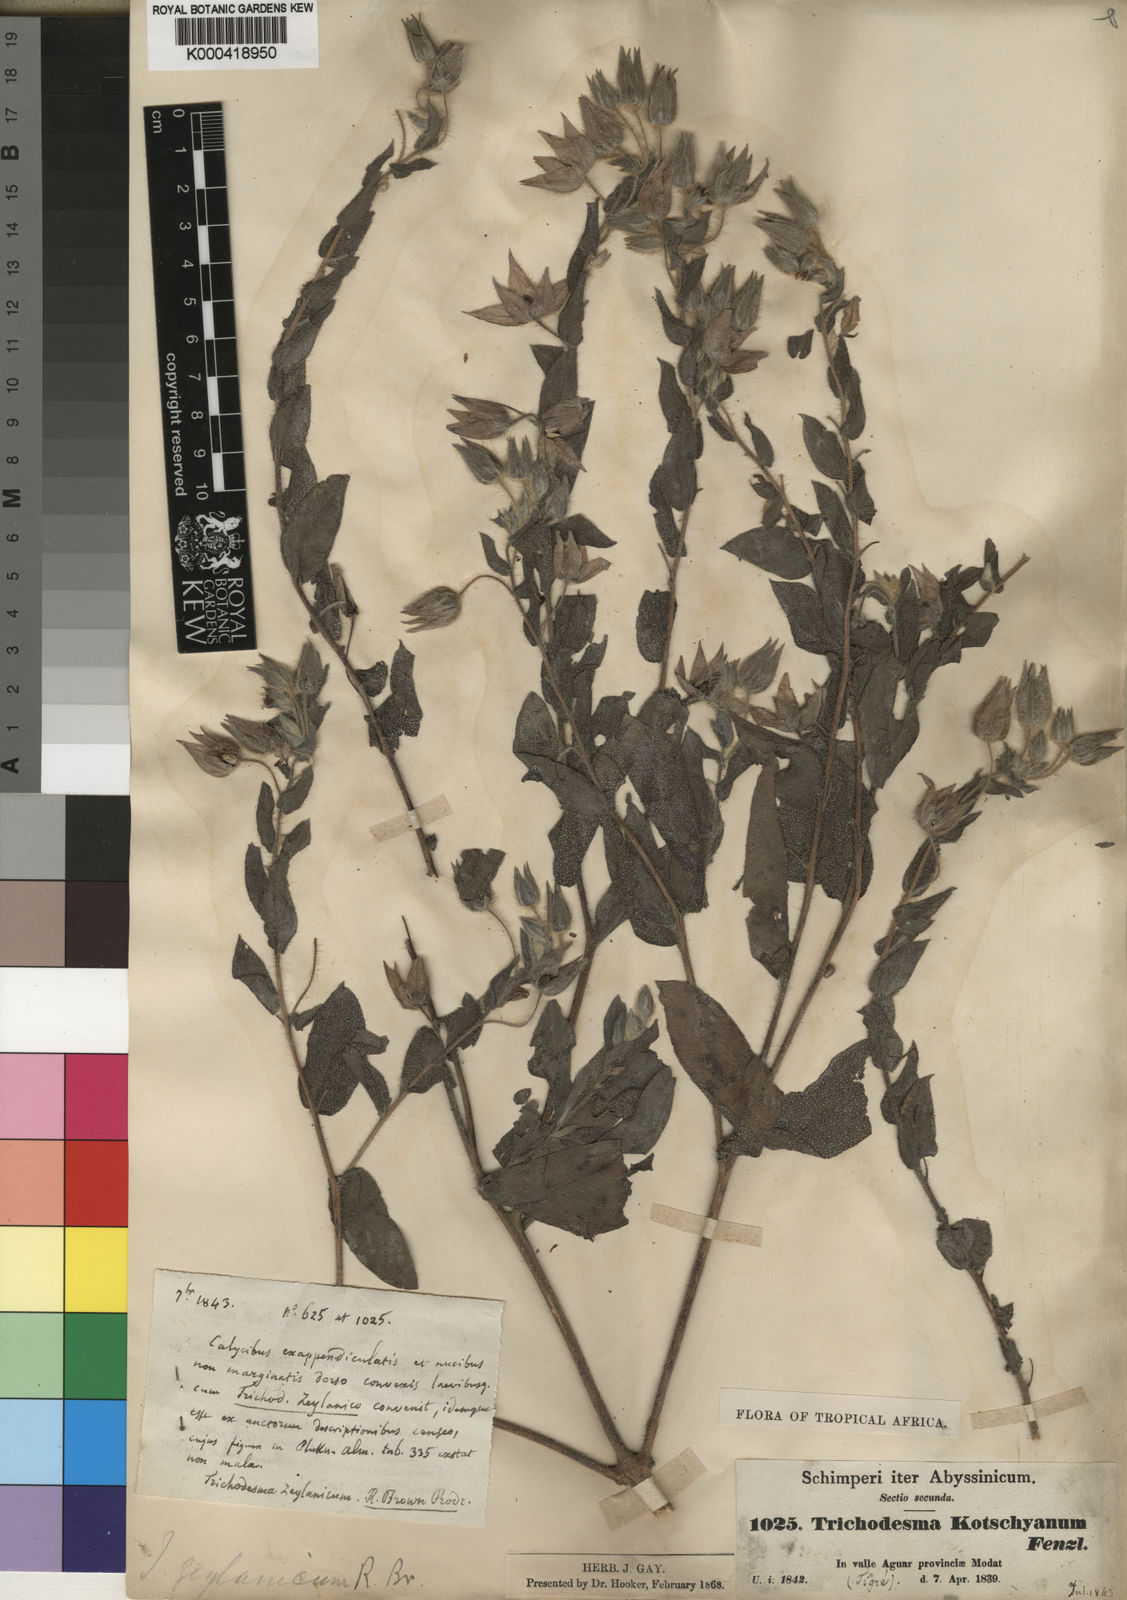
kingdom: Plantae
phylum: Tracheophyta
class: Magnoliopsida
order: Boraginales
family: Boraginaceae
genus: Trichodesma
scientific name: Trichodesma zeylanicum
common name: Camelbush
